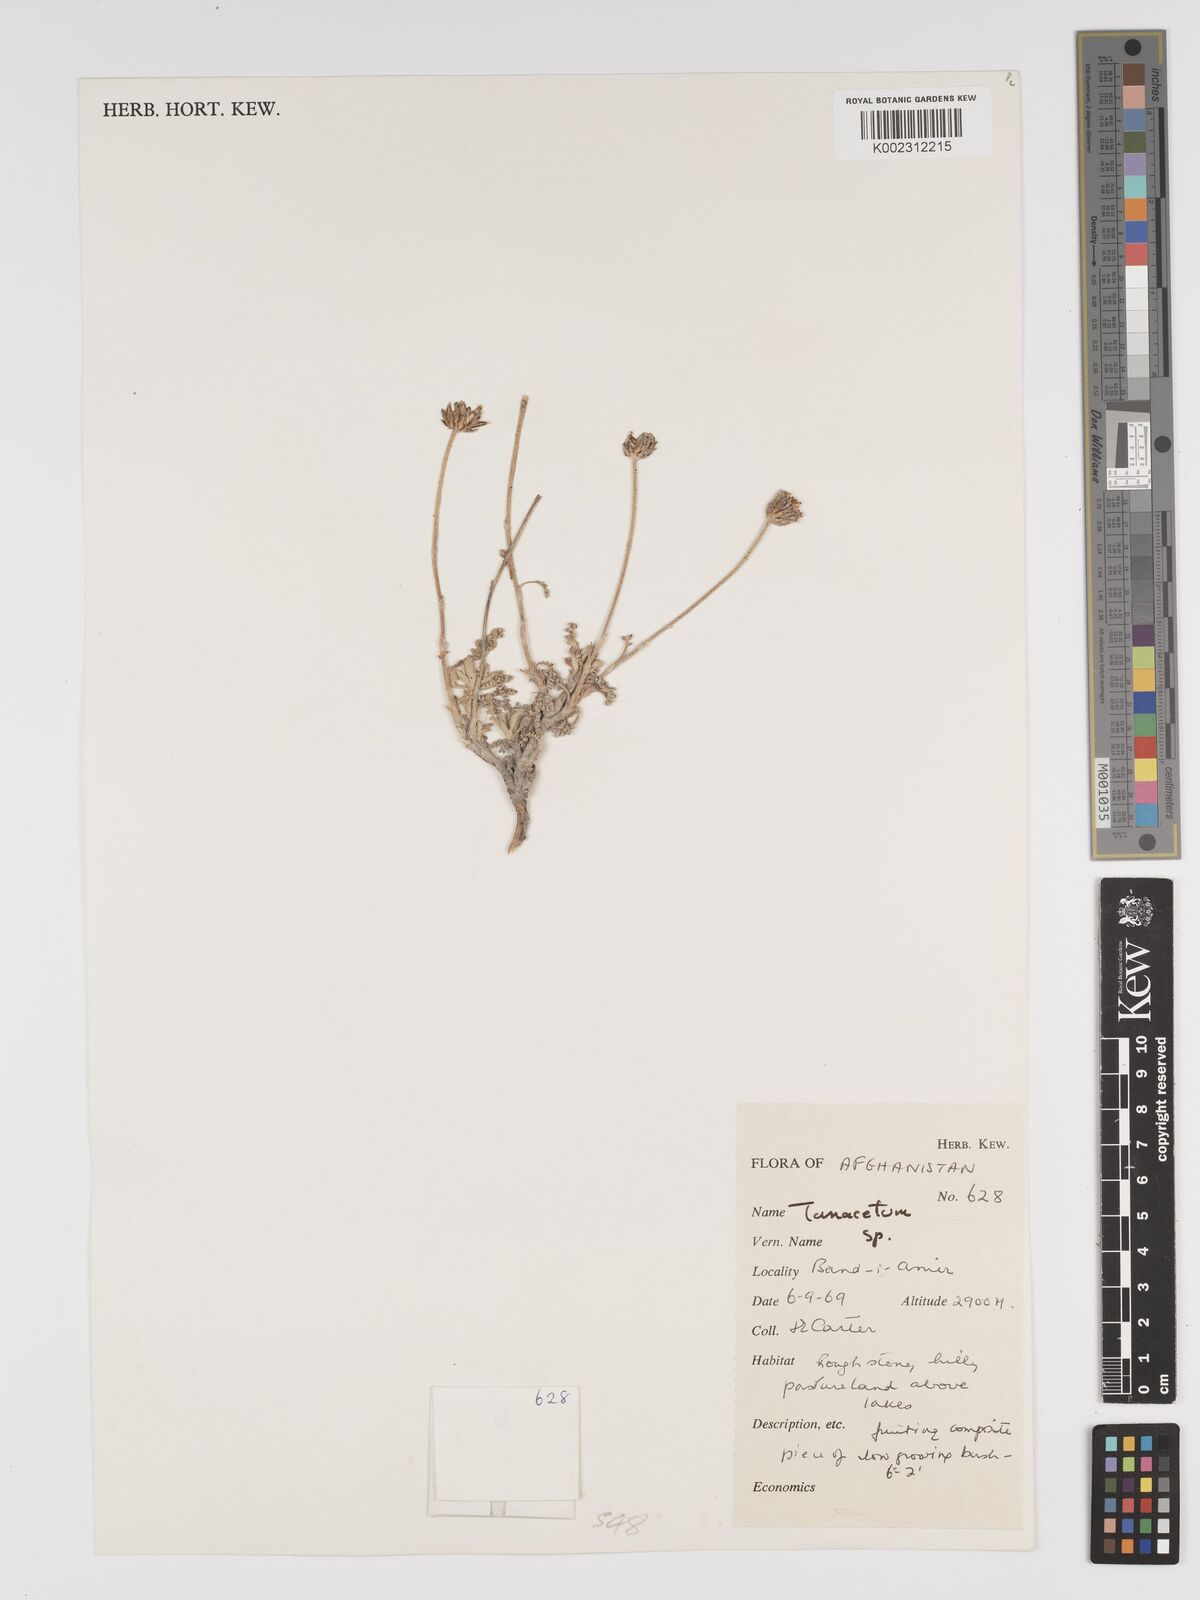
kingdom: Plantae
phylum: Tracheophyta
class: Magnoliopsida
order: Asterales
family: Asteraceae
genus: Tanacetum
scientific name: Tanacetum
